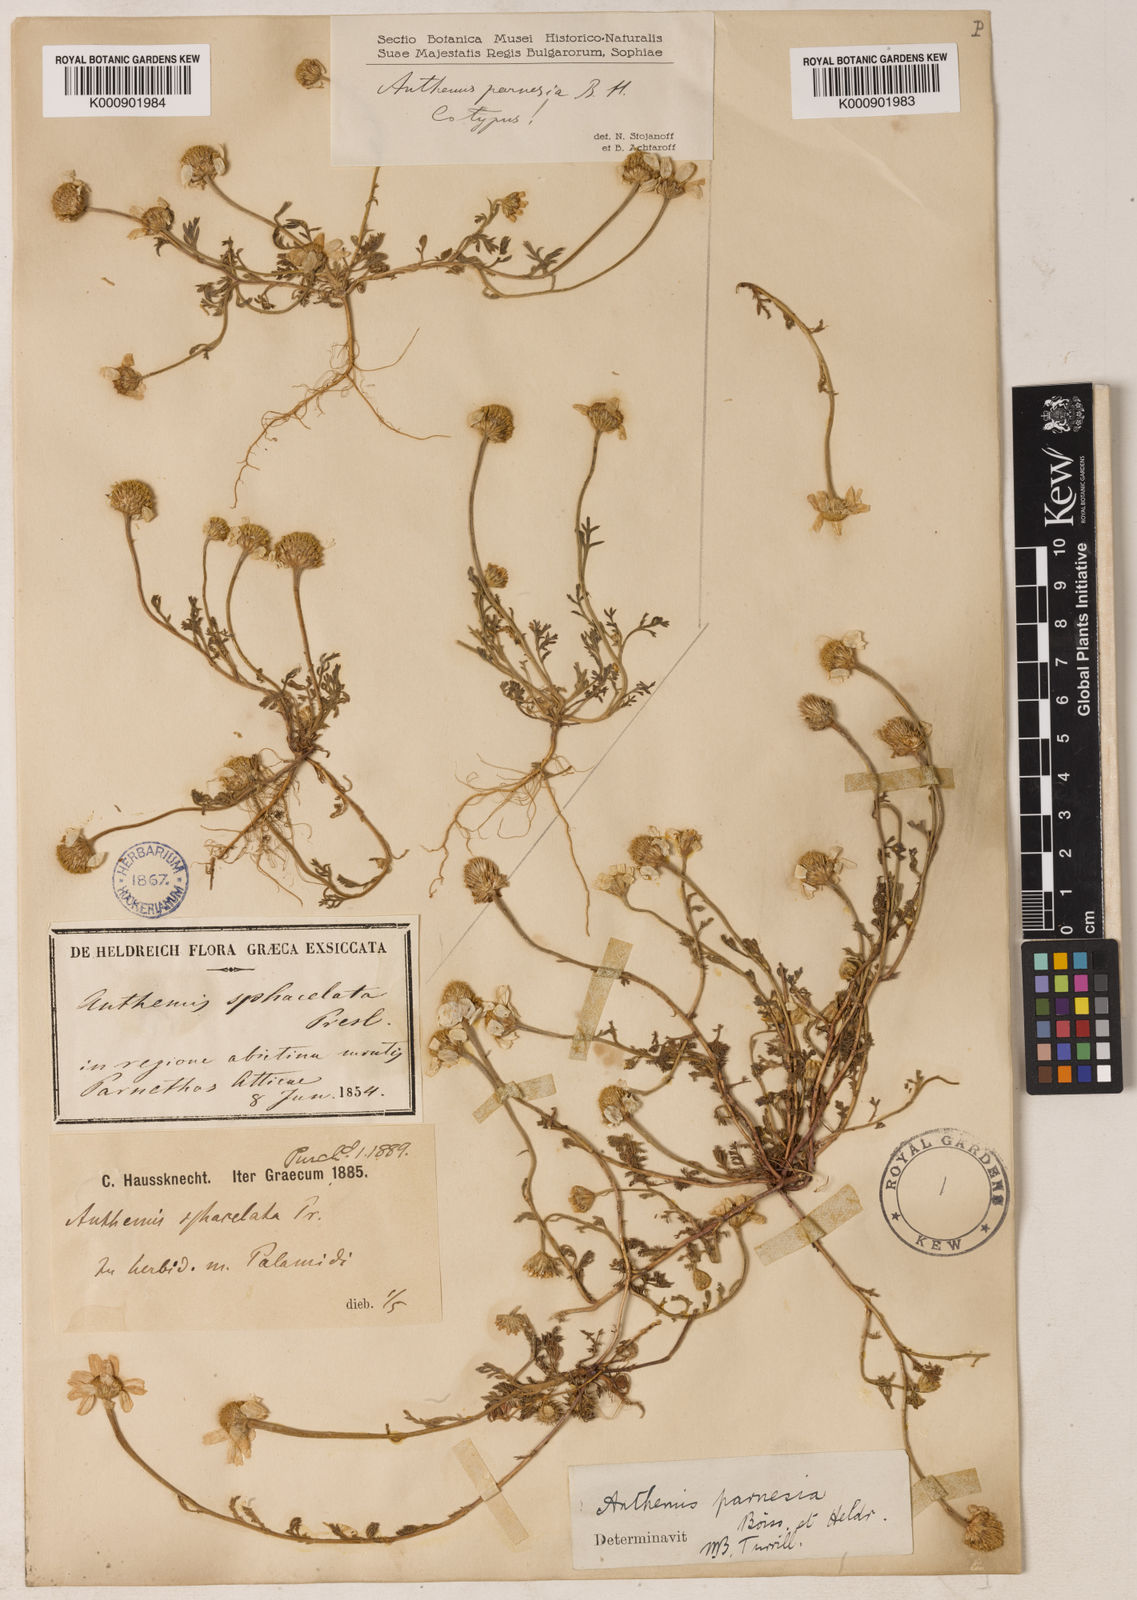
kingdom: Plantae
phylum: Tracheophyta
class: Magnoliopsida
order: Asterales
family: Asteraceae
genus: Anthemis
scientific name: Anthemis parnesia
